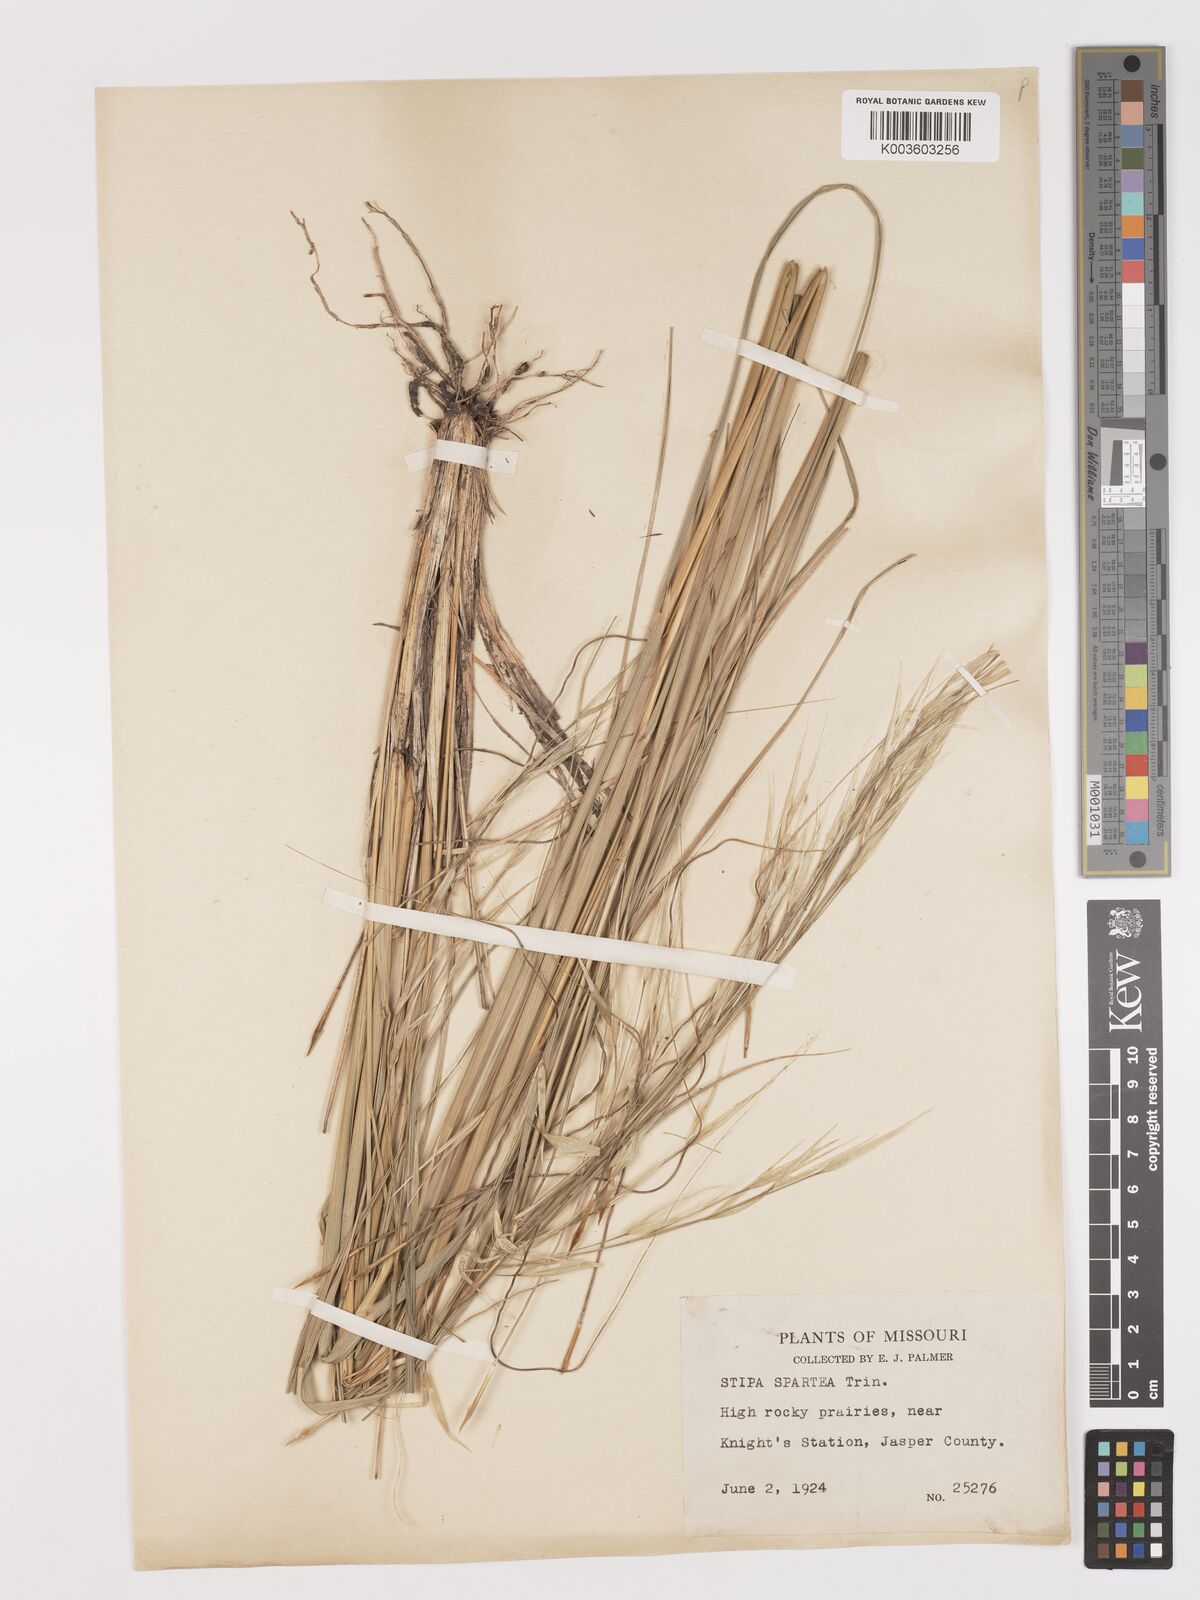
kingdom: Plantae
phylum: Tracheophyta
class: Liliopsida
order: Poales
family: Poaceae
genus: Hesperostipa
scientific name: Hesperostipa spartea
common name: Porcupine grass
